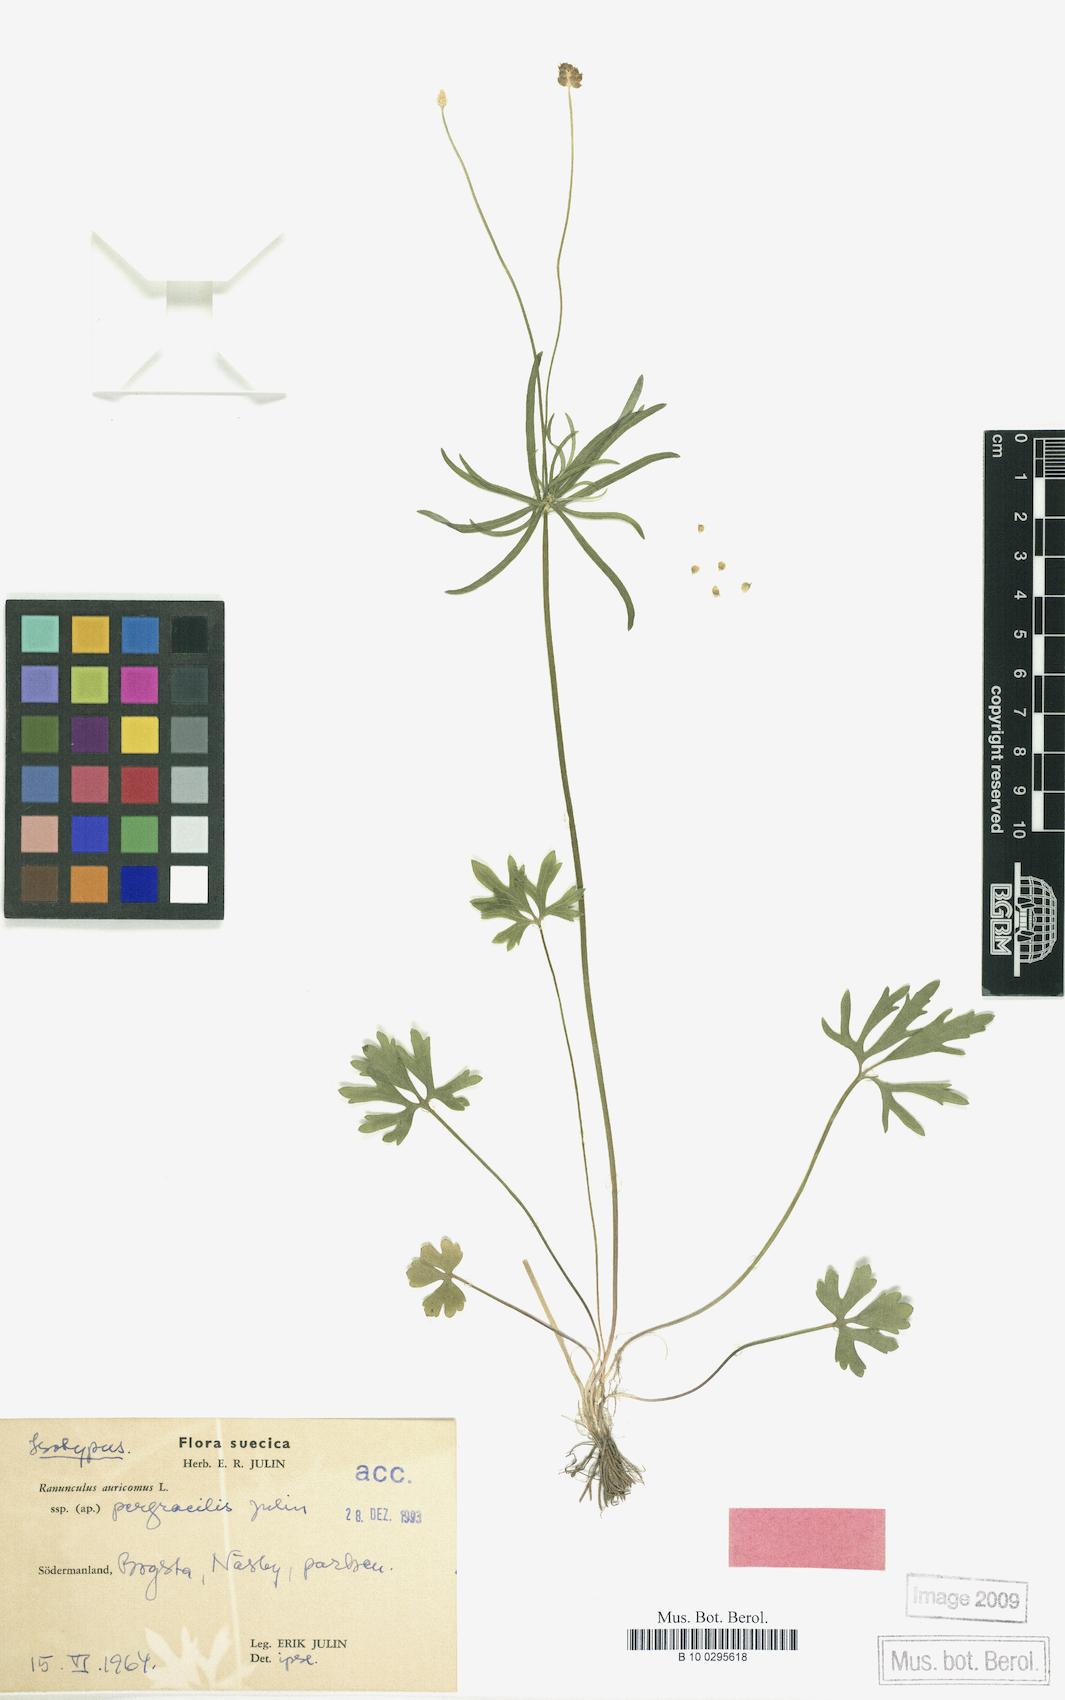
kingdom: Plantae
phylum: Tracheophyta
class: Magnoliopsida
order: Ranunculales
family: Ranunculaceae
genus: Ranunculus
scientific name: Ranunculus pergracilis
